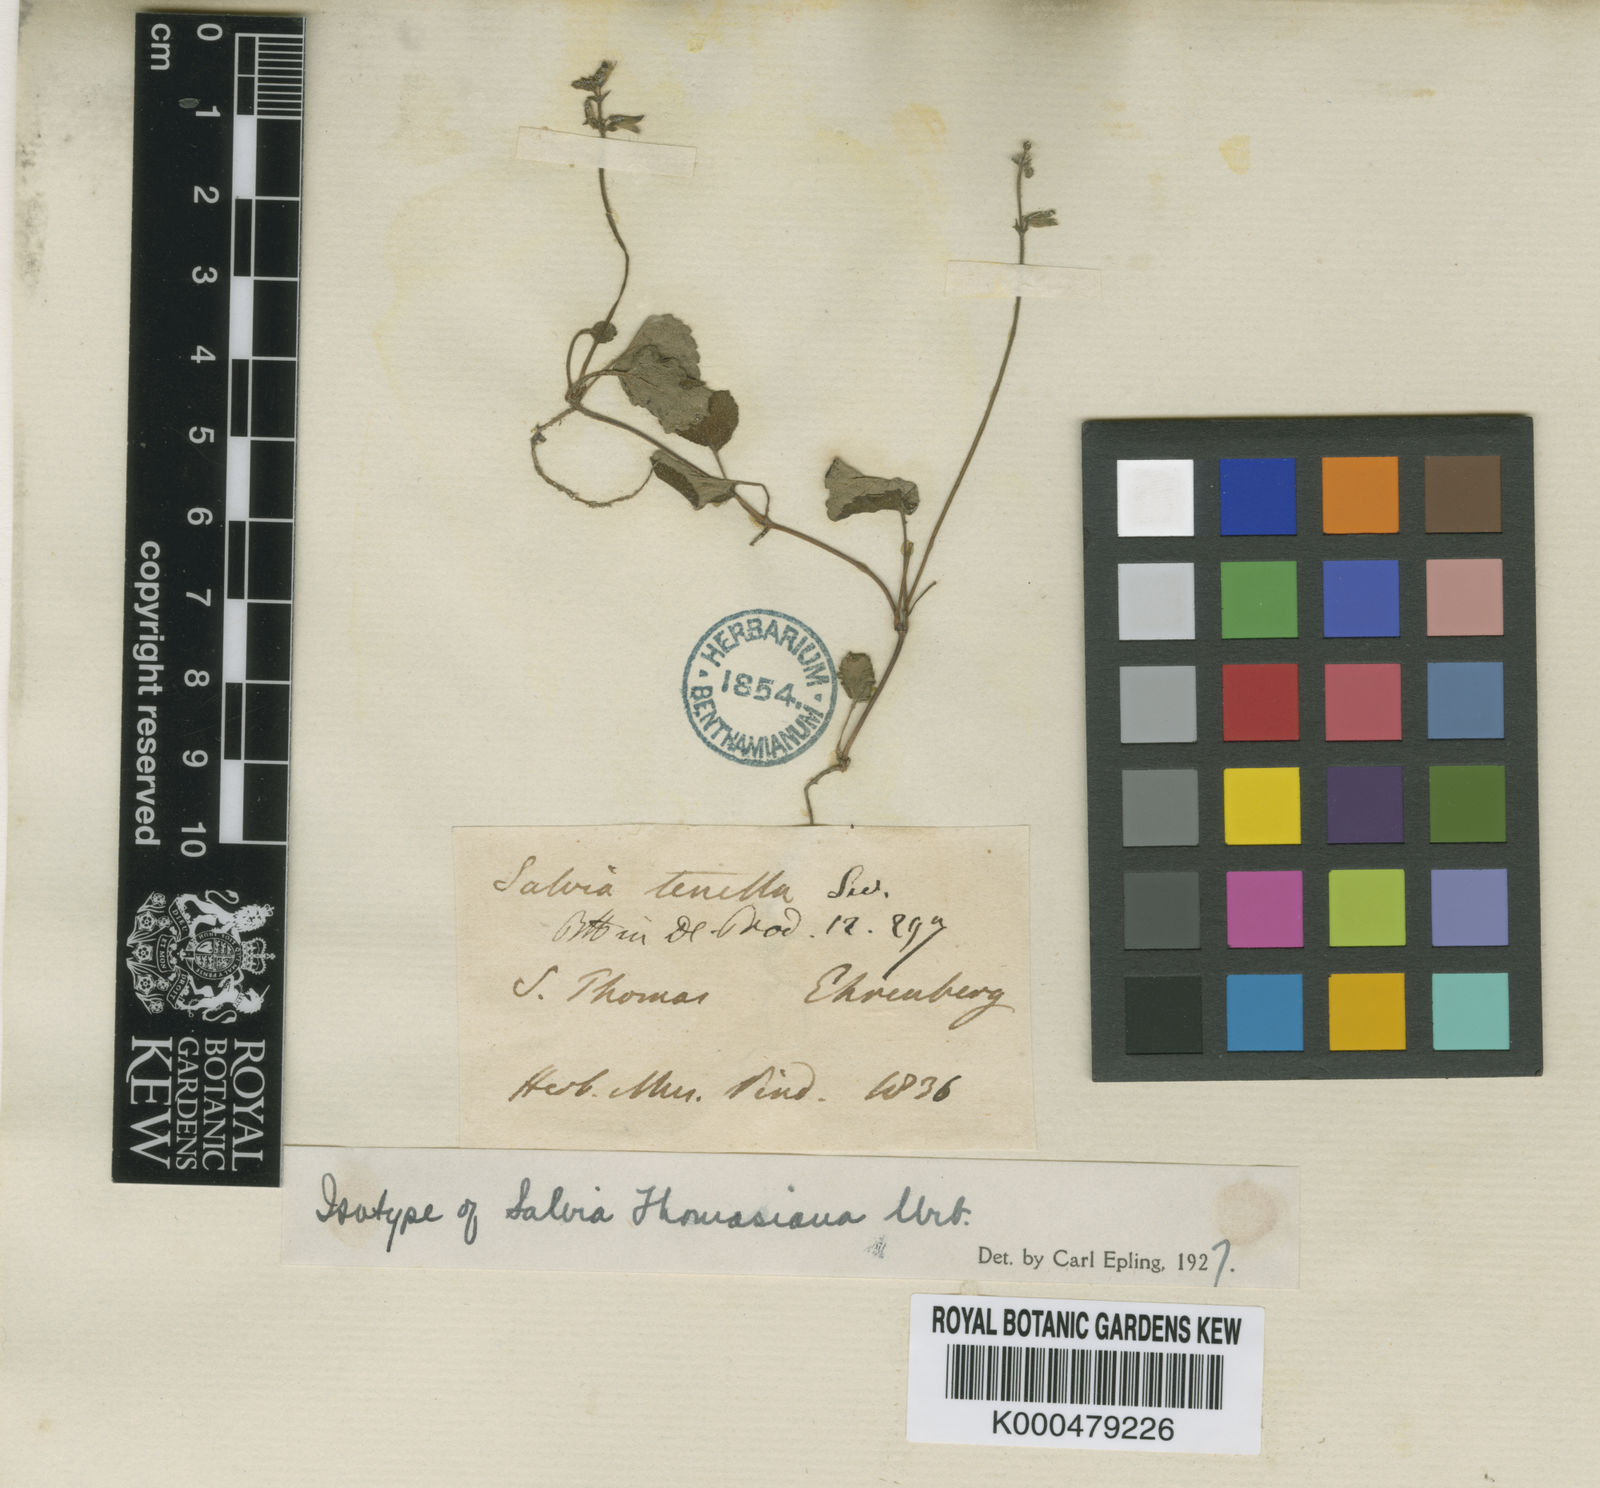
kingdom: Plantae
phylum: Tracheophyta
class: Magnoliopsida
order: Lamiales
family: Lamiaceae
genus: Salvia
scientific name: Salvia thomasiana
